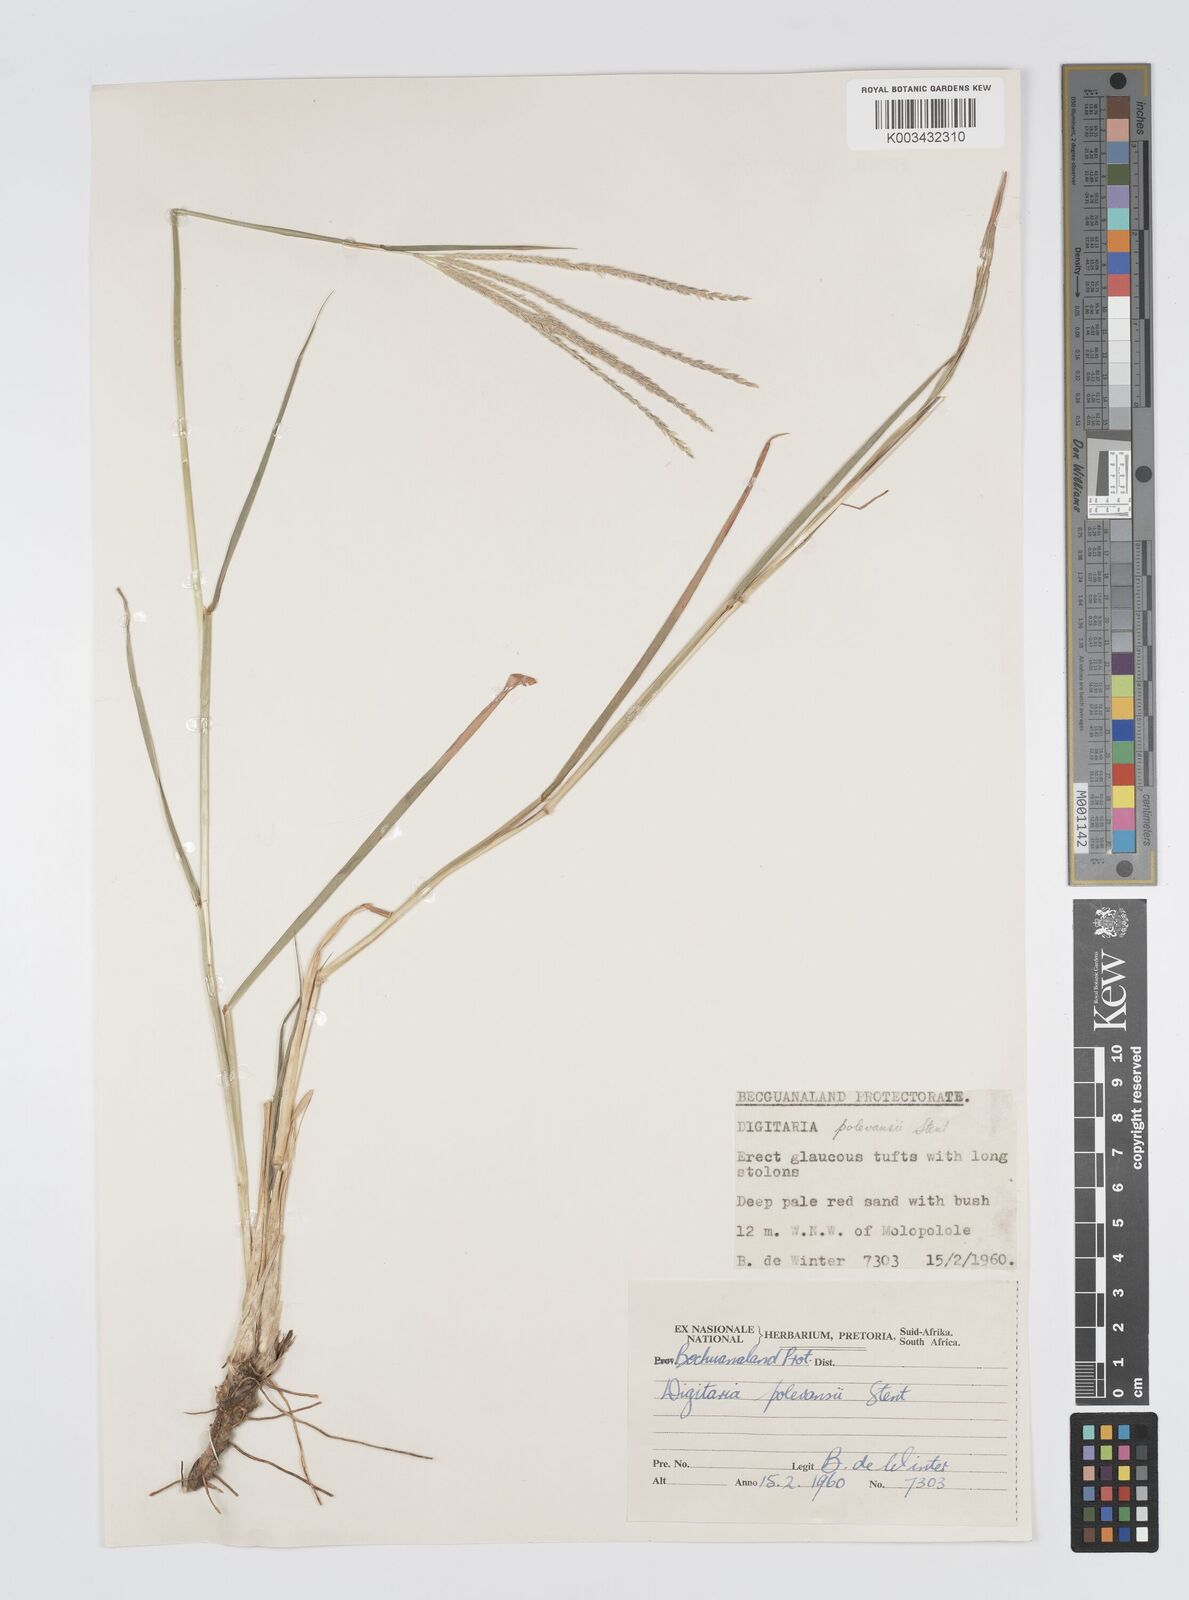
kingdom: Plantae
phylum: Tracheophyta
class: Liliopsida
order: Poales
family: Poaceae
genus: Digitaria
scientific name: Digitaria milanjiana
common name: Madagascar crabgrass
